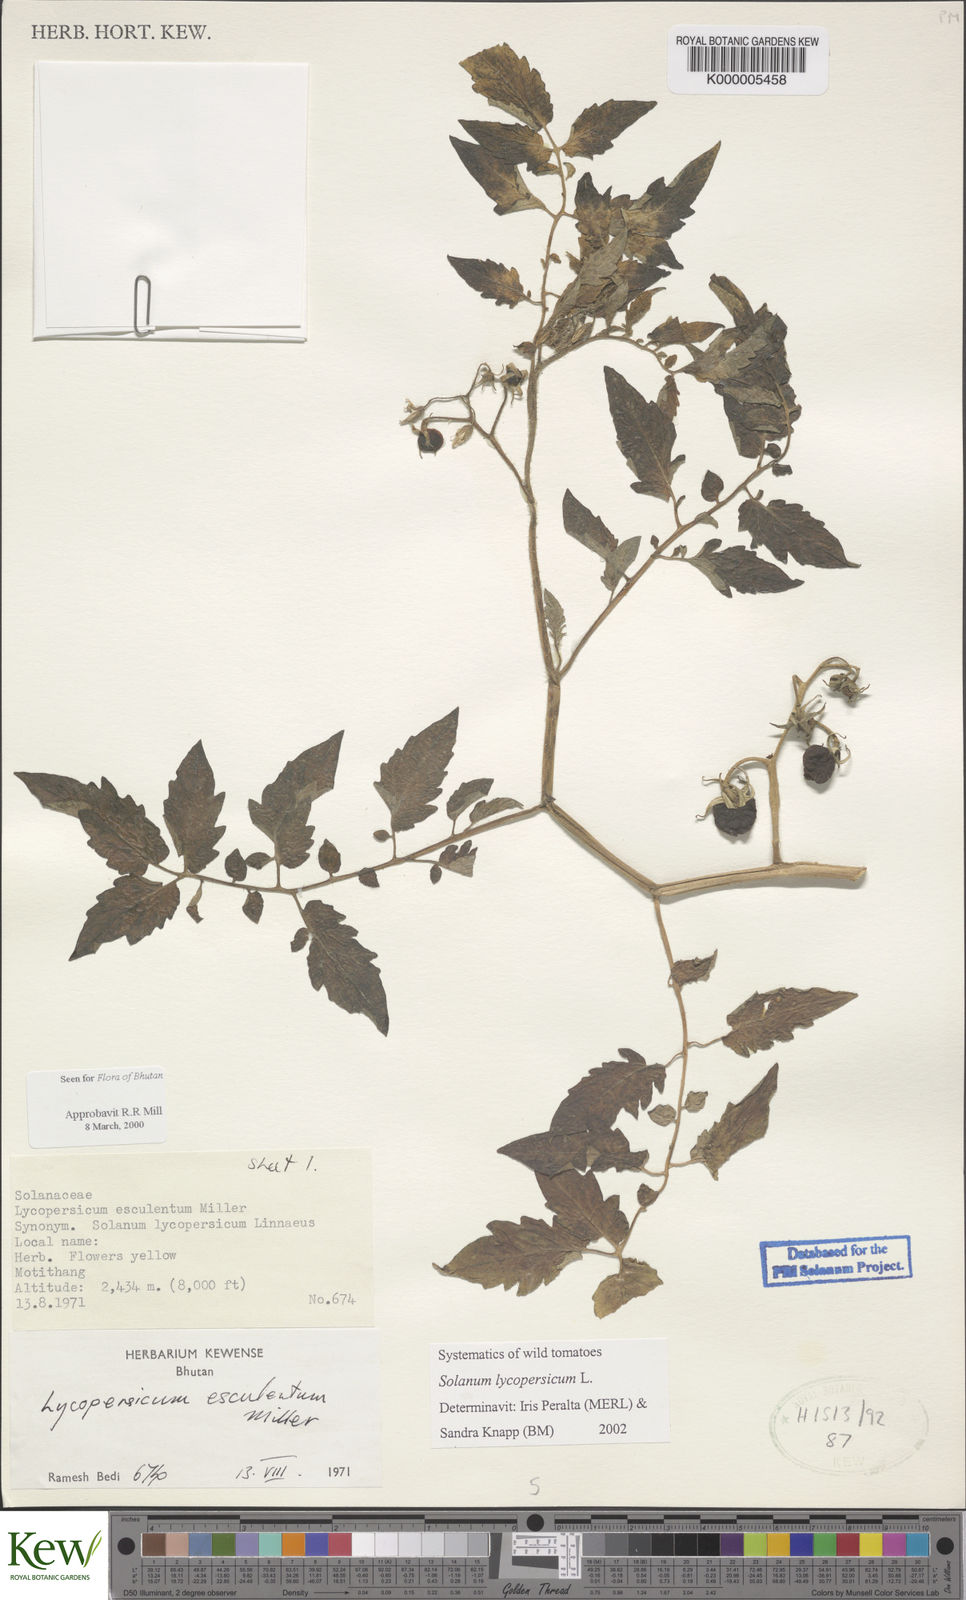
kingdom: Plantae
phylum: Tracheophyta
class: Magnoliopsida
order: Solanales
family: Solanaceae
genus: Solanum
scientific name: Solanum lycopersicum
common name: Garden tomato
